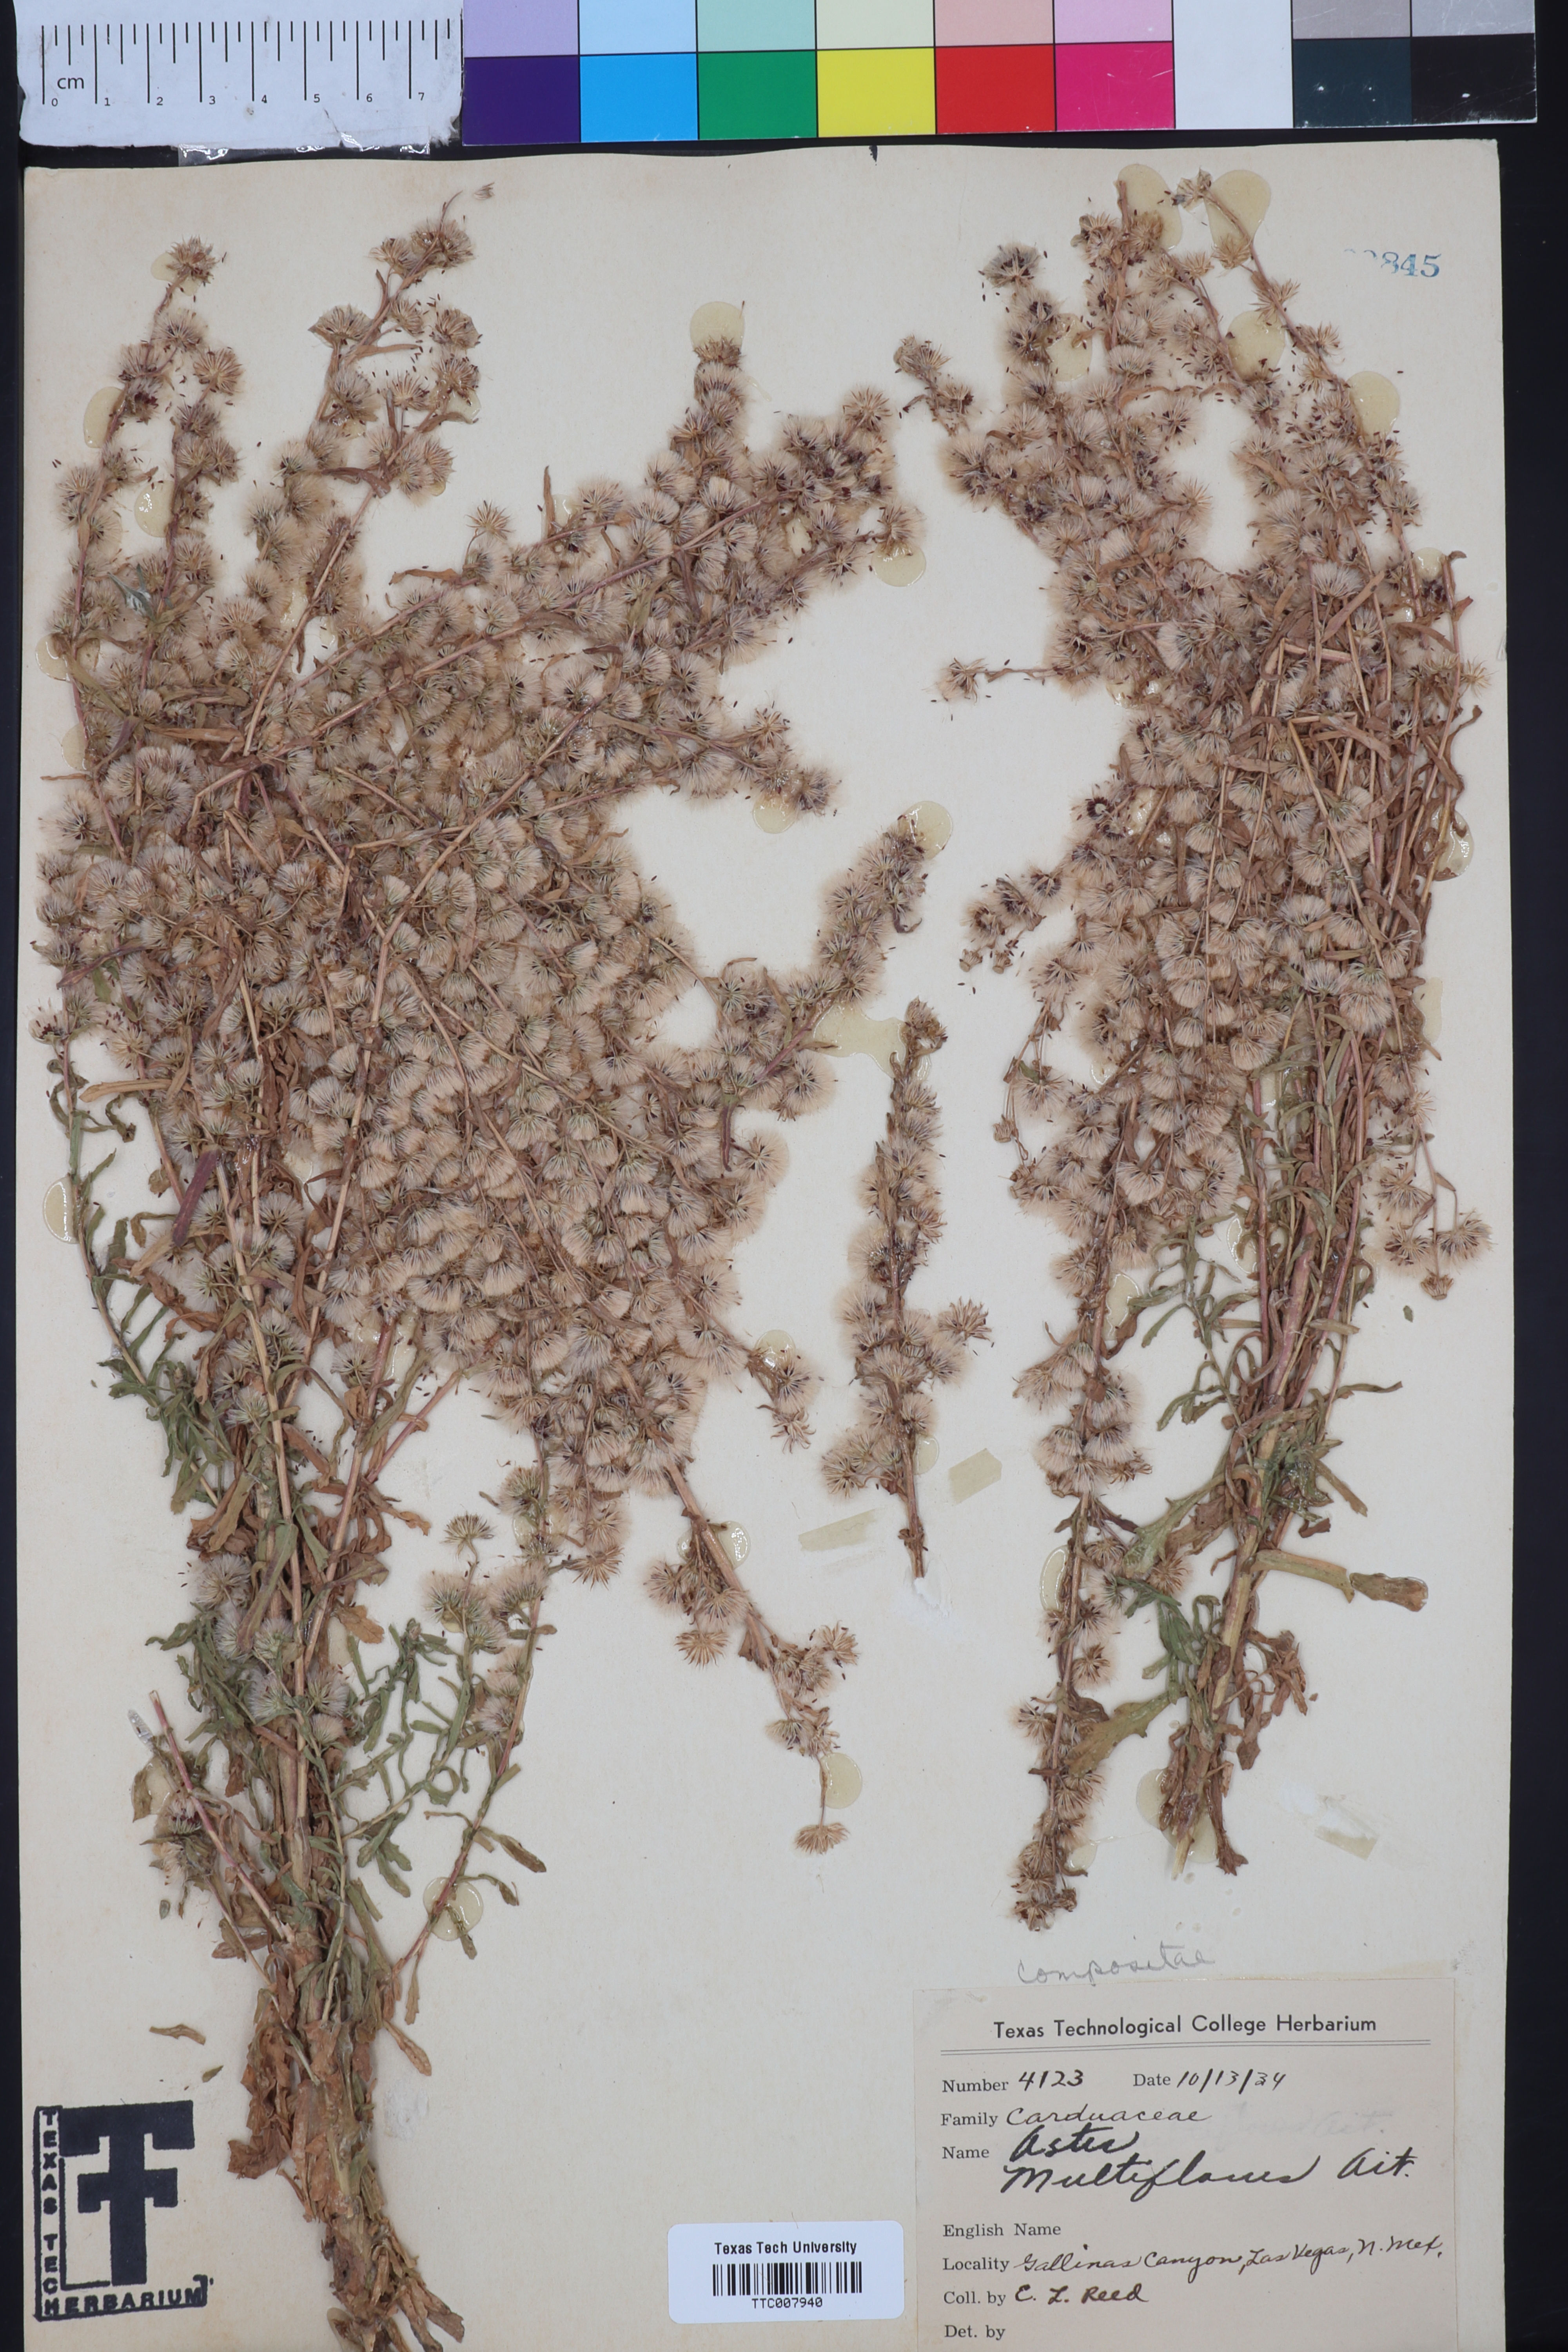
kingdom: Plantae
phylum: Tracheophyta
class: Magnoliopsida
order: Asterales
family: Asteraceae
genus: Symphyotrichum
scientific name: Symphyotrichum ericoides
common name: Heath aster
